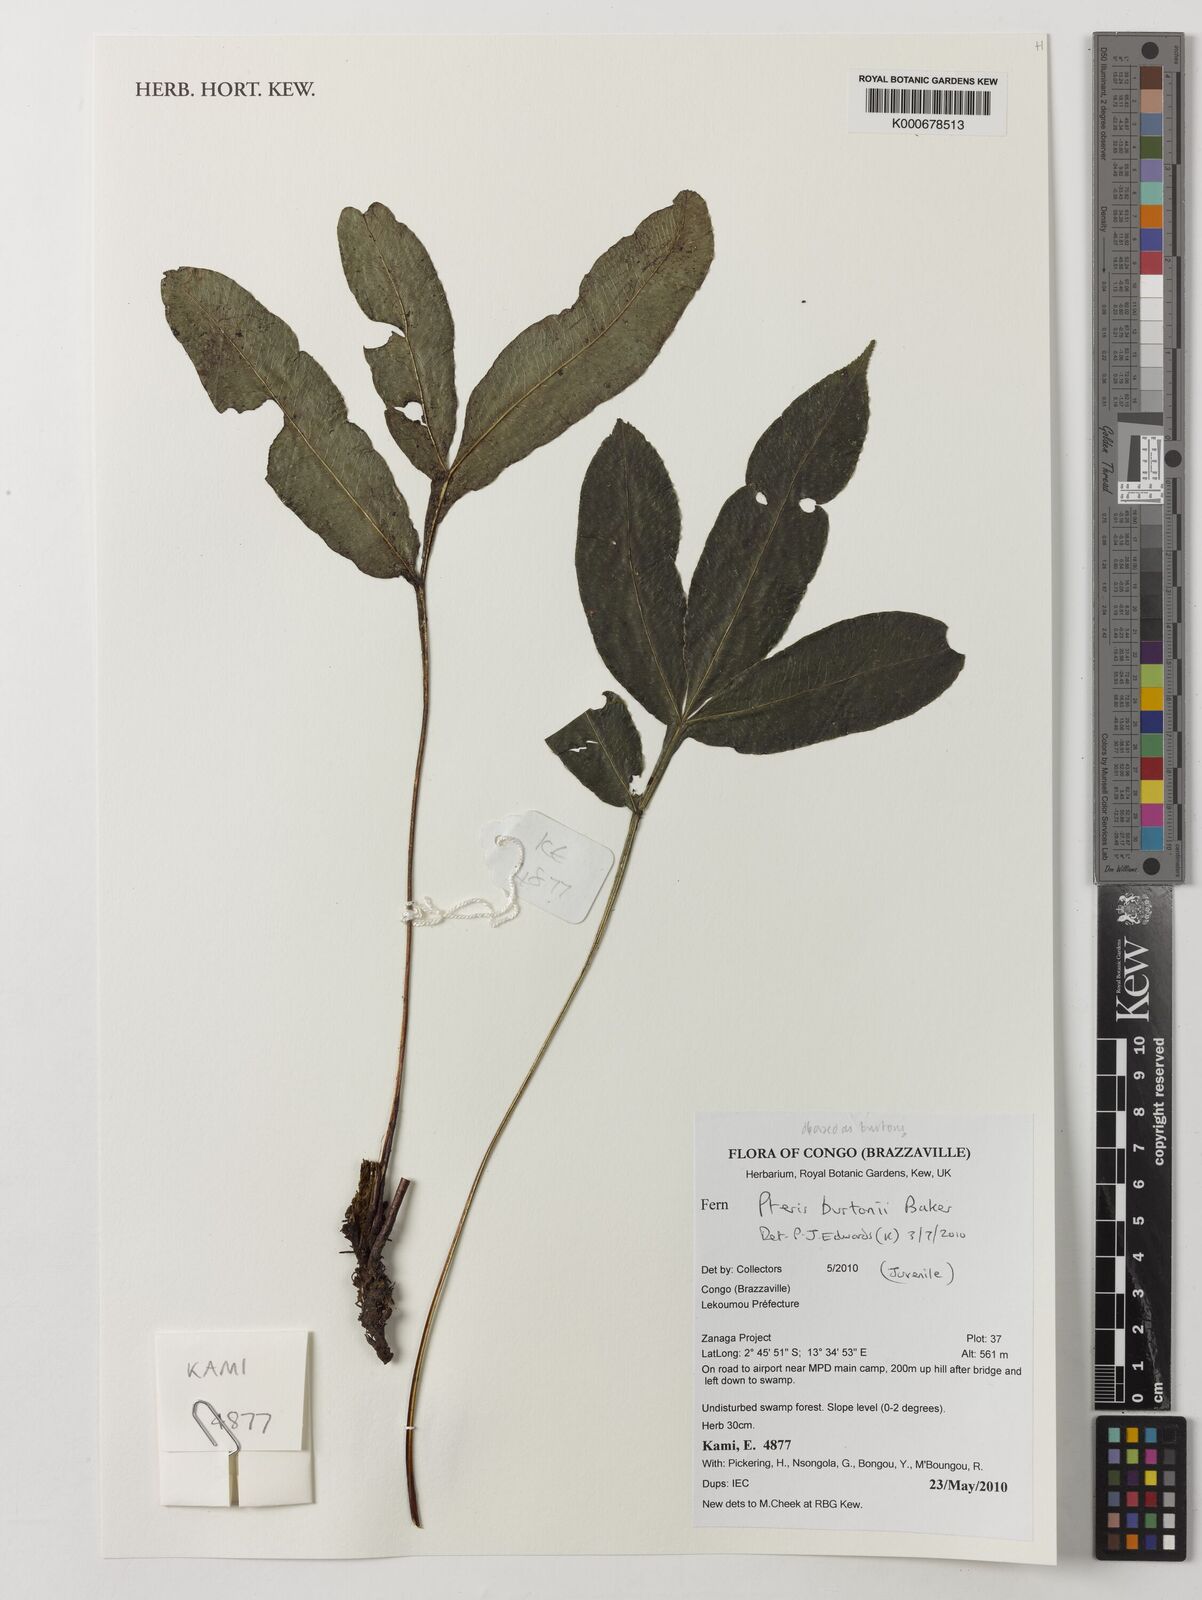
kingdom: Plantae
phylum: Tracheophyta
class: Polypodiopsida
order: Polypodiales
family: Pteridaceae
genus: Pteris
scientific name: Pteris burtonii
